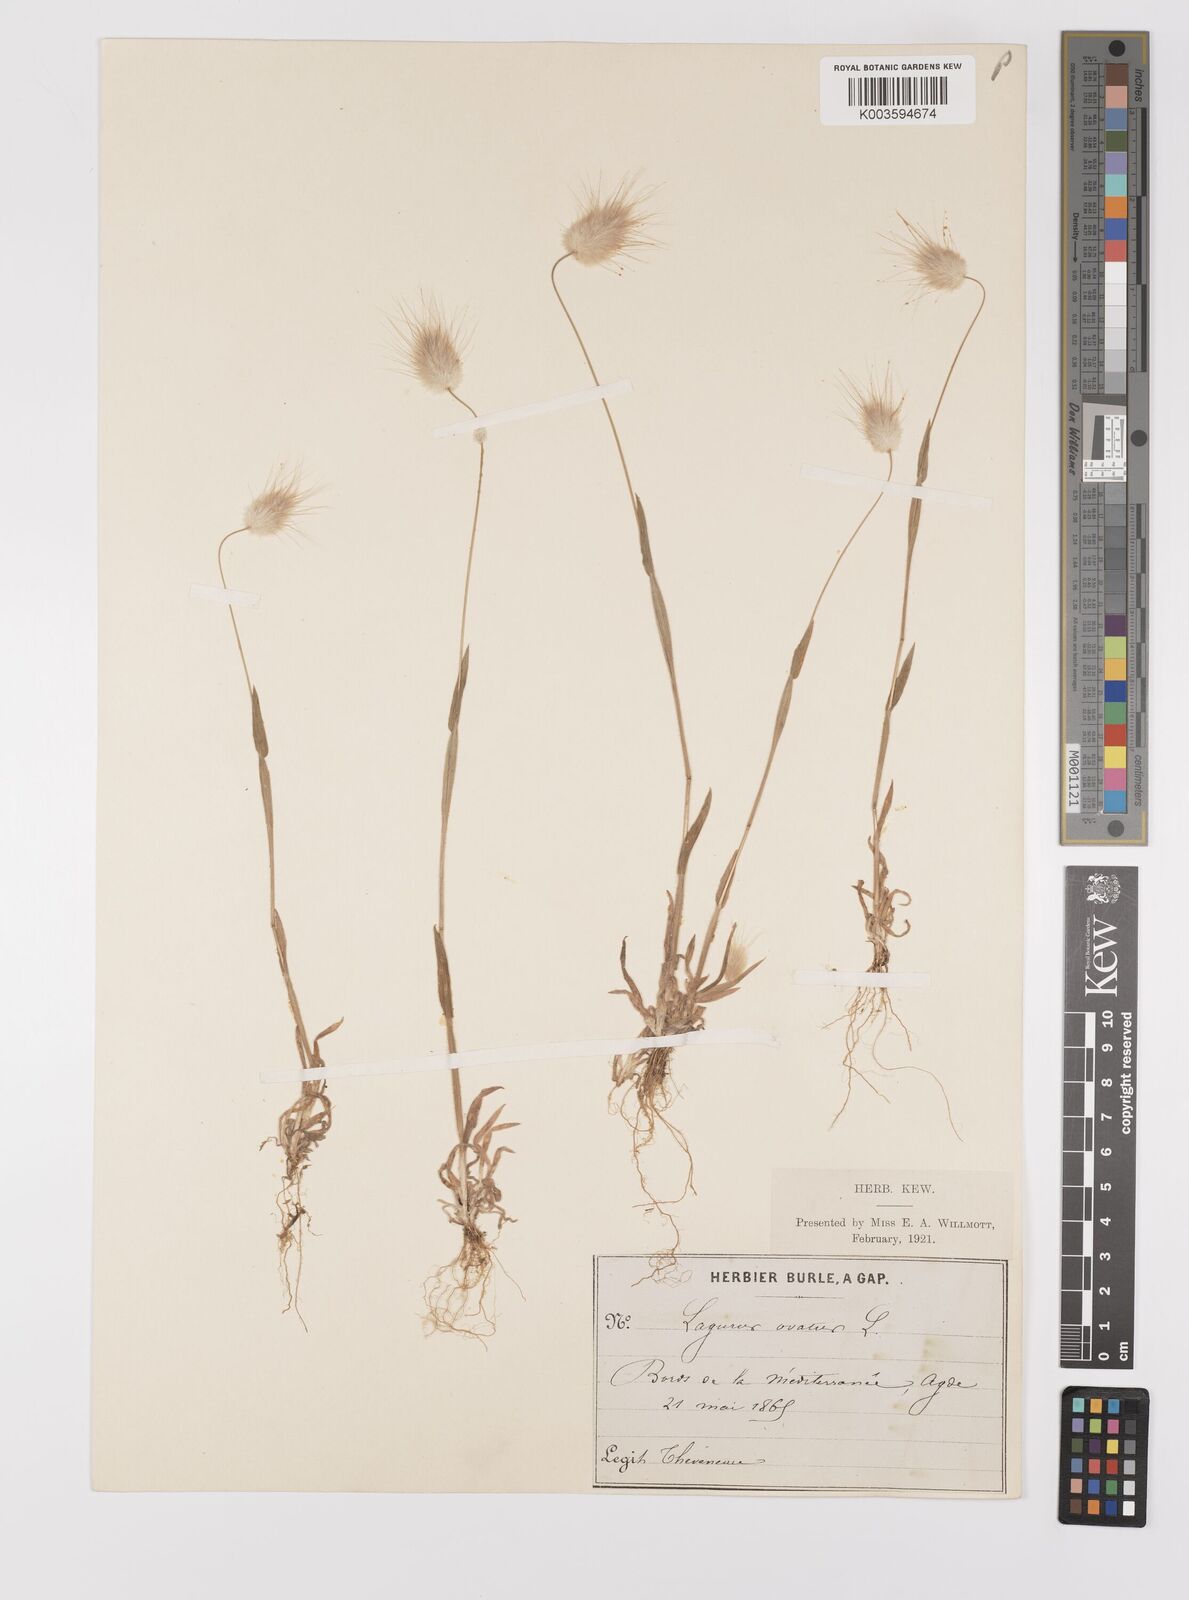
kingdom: Plantae
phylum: Tracheophyta
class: Liliopsida
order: Poales
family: Poaceae
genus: Lagurus
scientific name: Lagurus ovatus
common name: Hare's-tail
